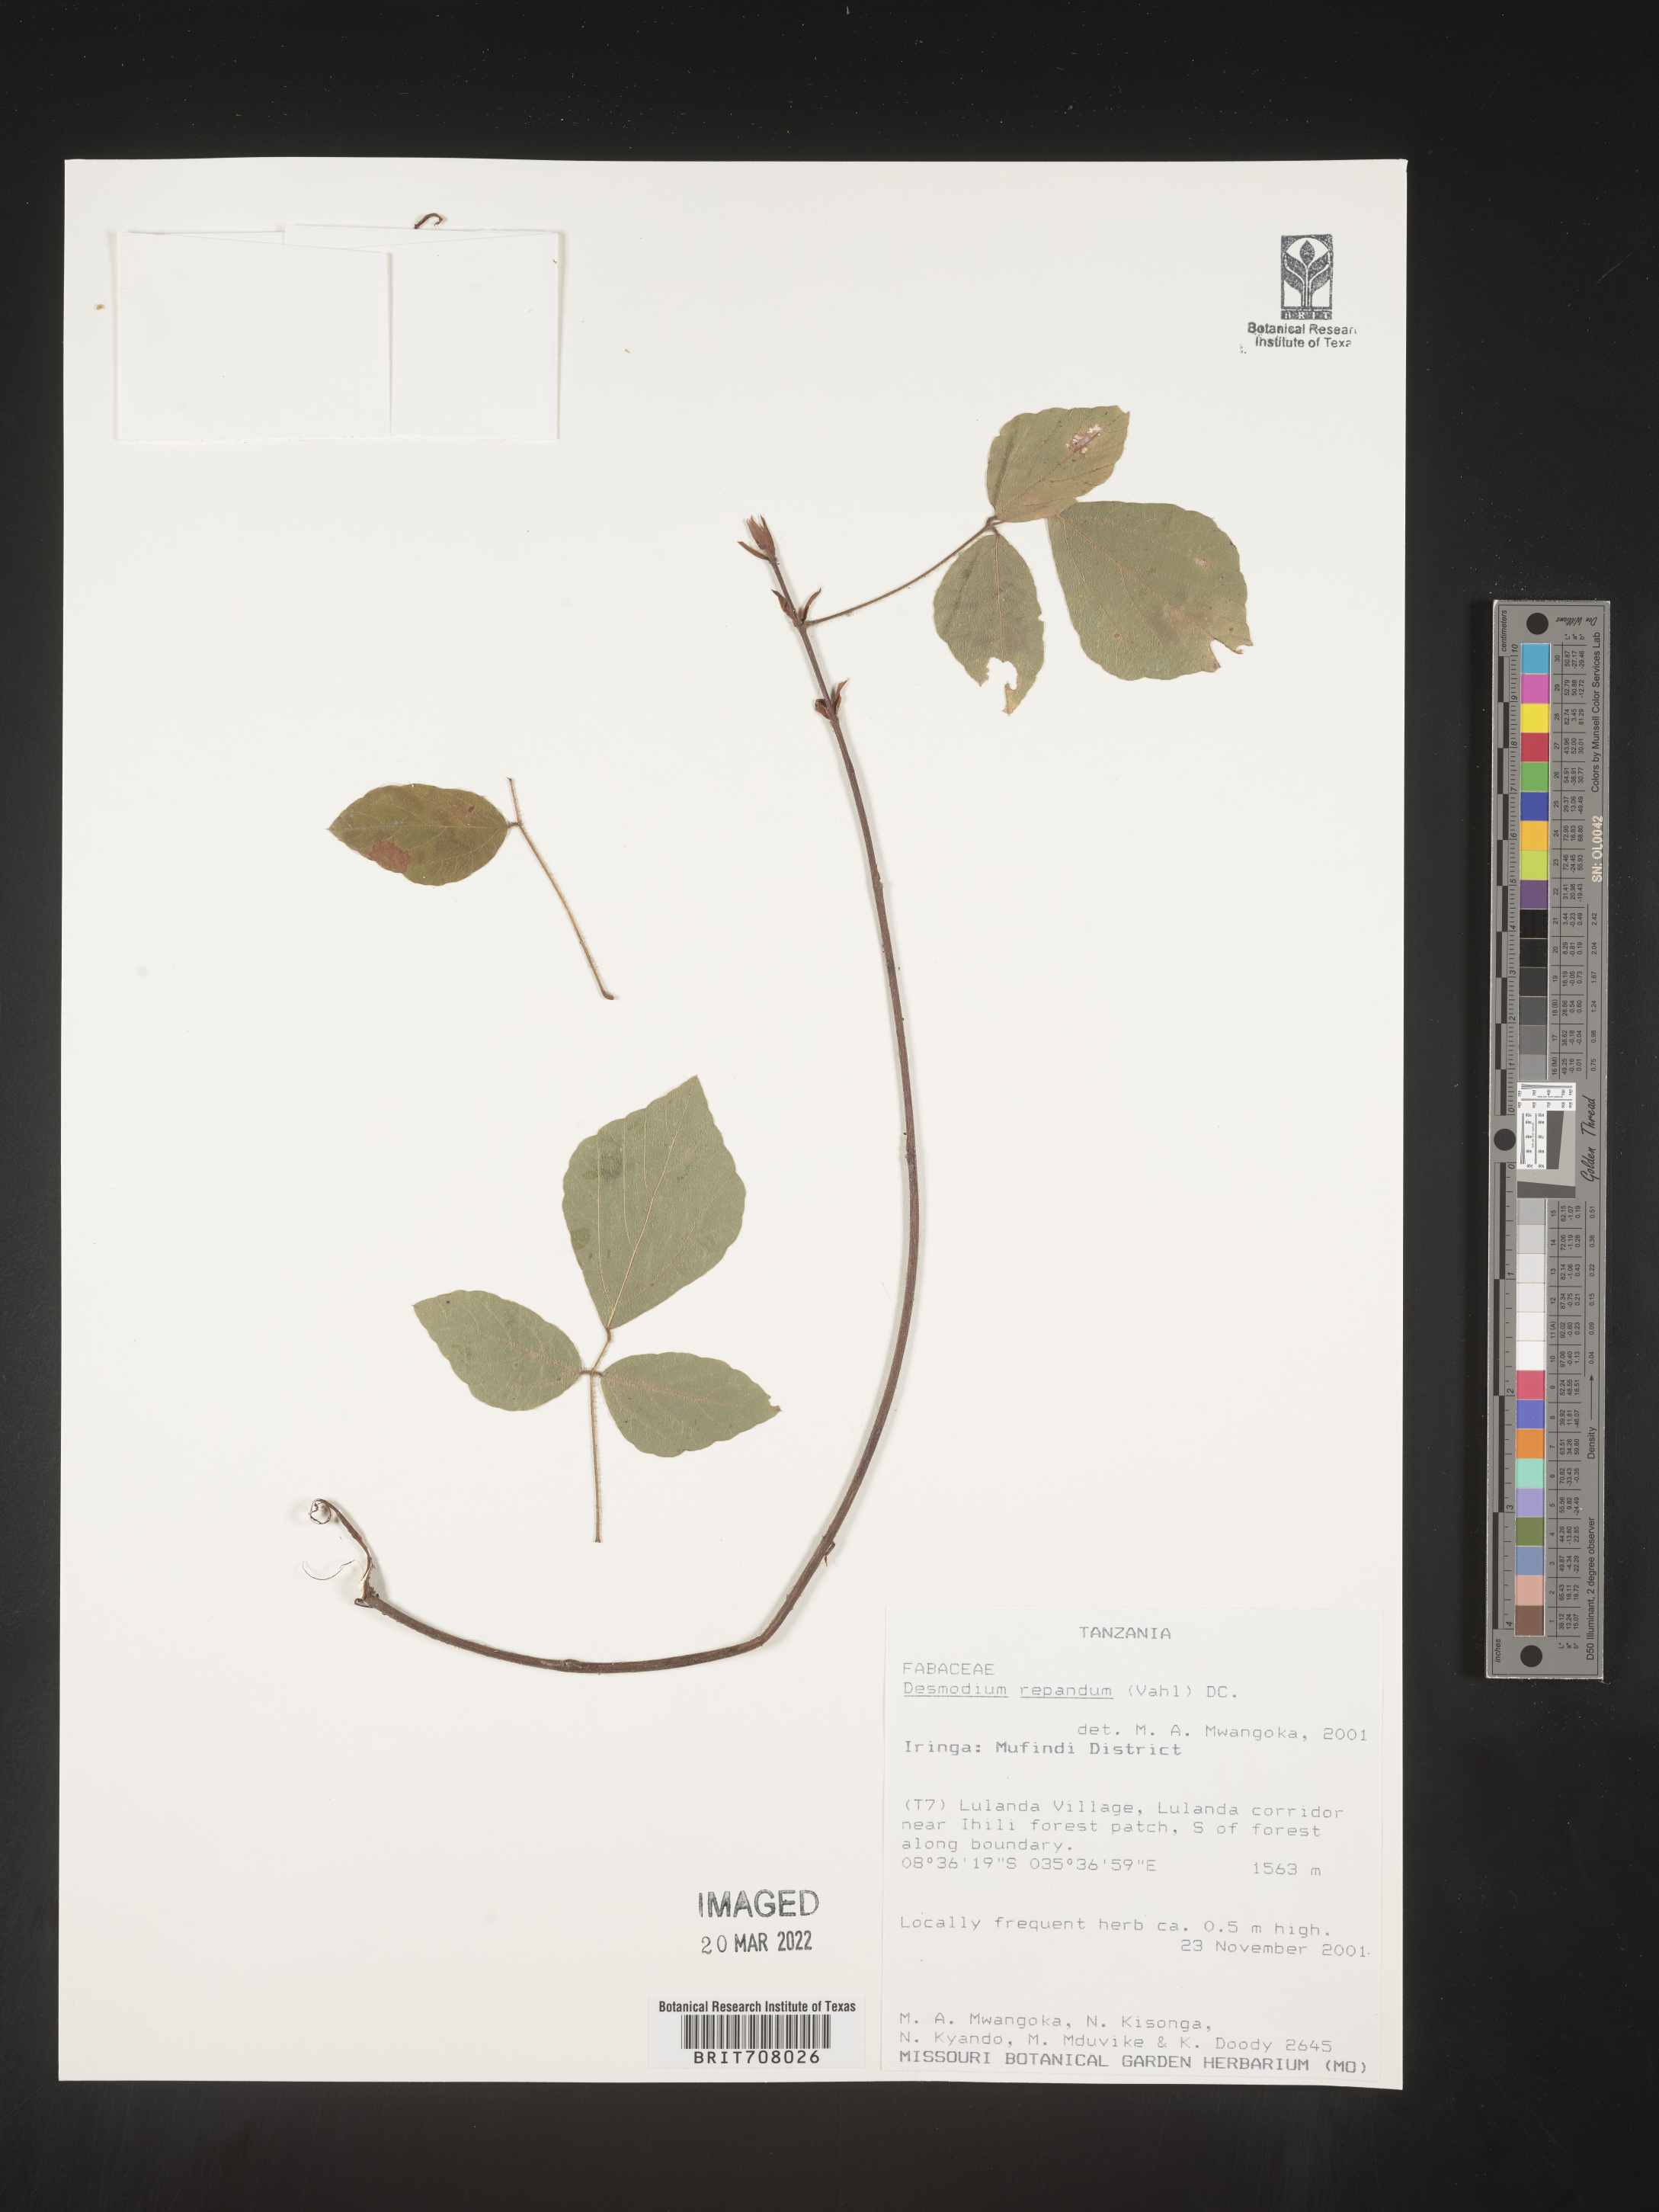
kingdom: Plantae
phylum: Tracheophyta
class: Magnoliopsida
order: Fabales
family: Fabaceae
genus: Desmodium
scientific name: Desmodium
